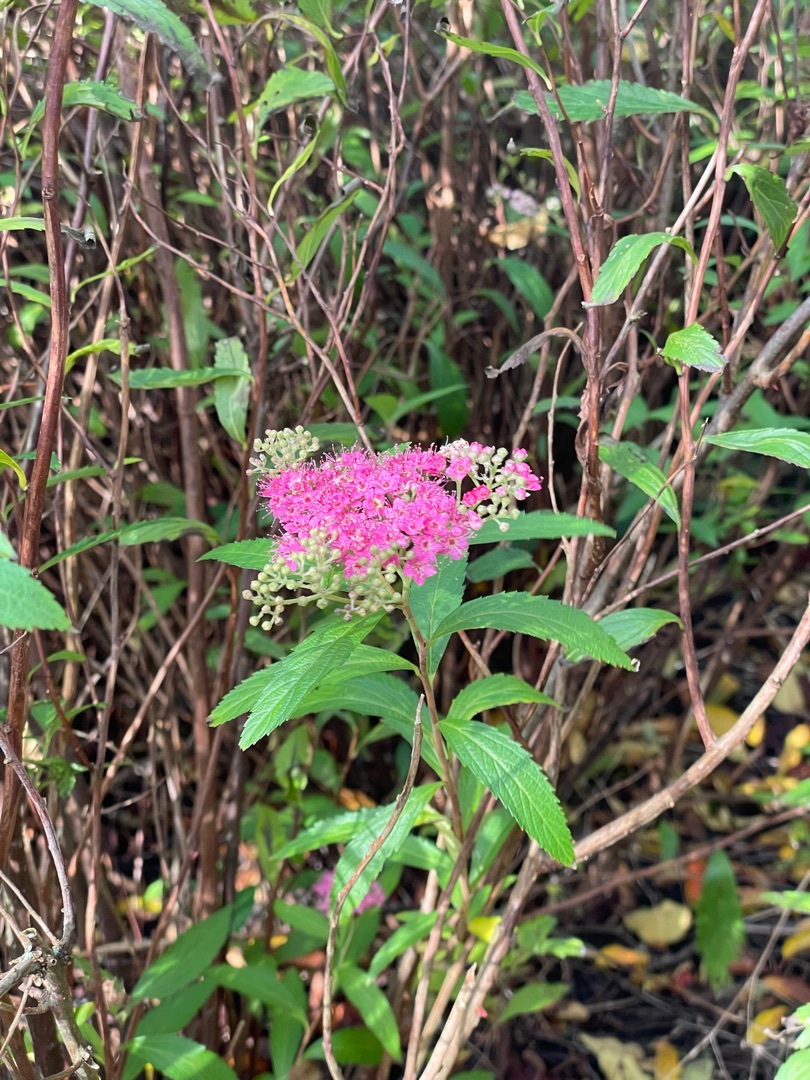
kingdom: Plantae
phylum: Tracheophyta
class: Magnoliopsida
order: Rosales
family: Rosaceae
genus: Spiraea
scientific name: Spiraea japonica
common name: Rosen-spiræa
